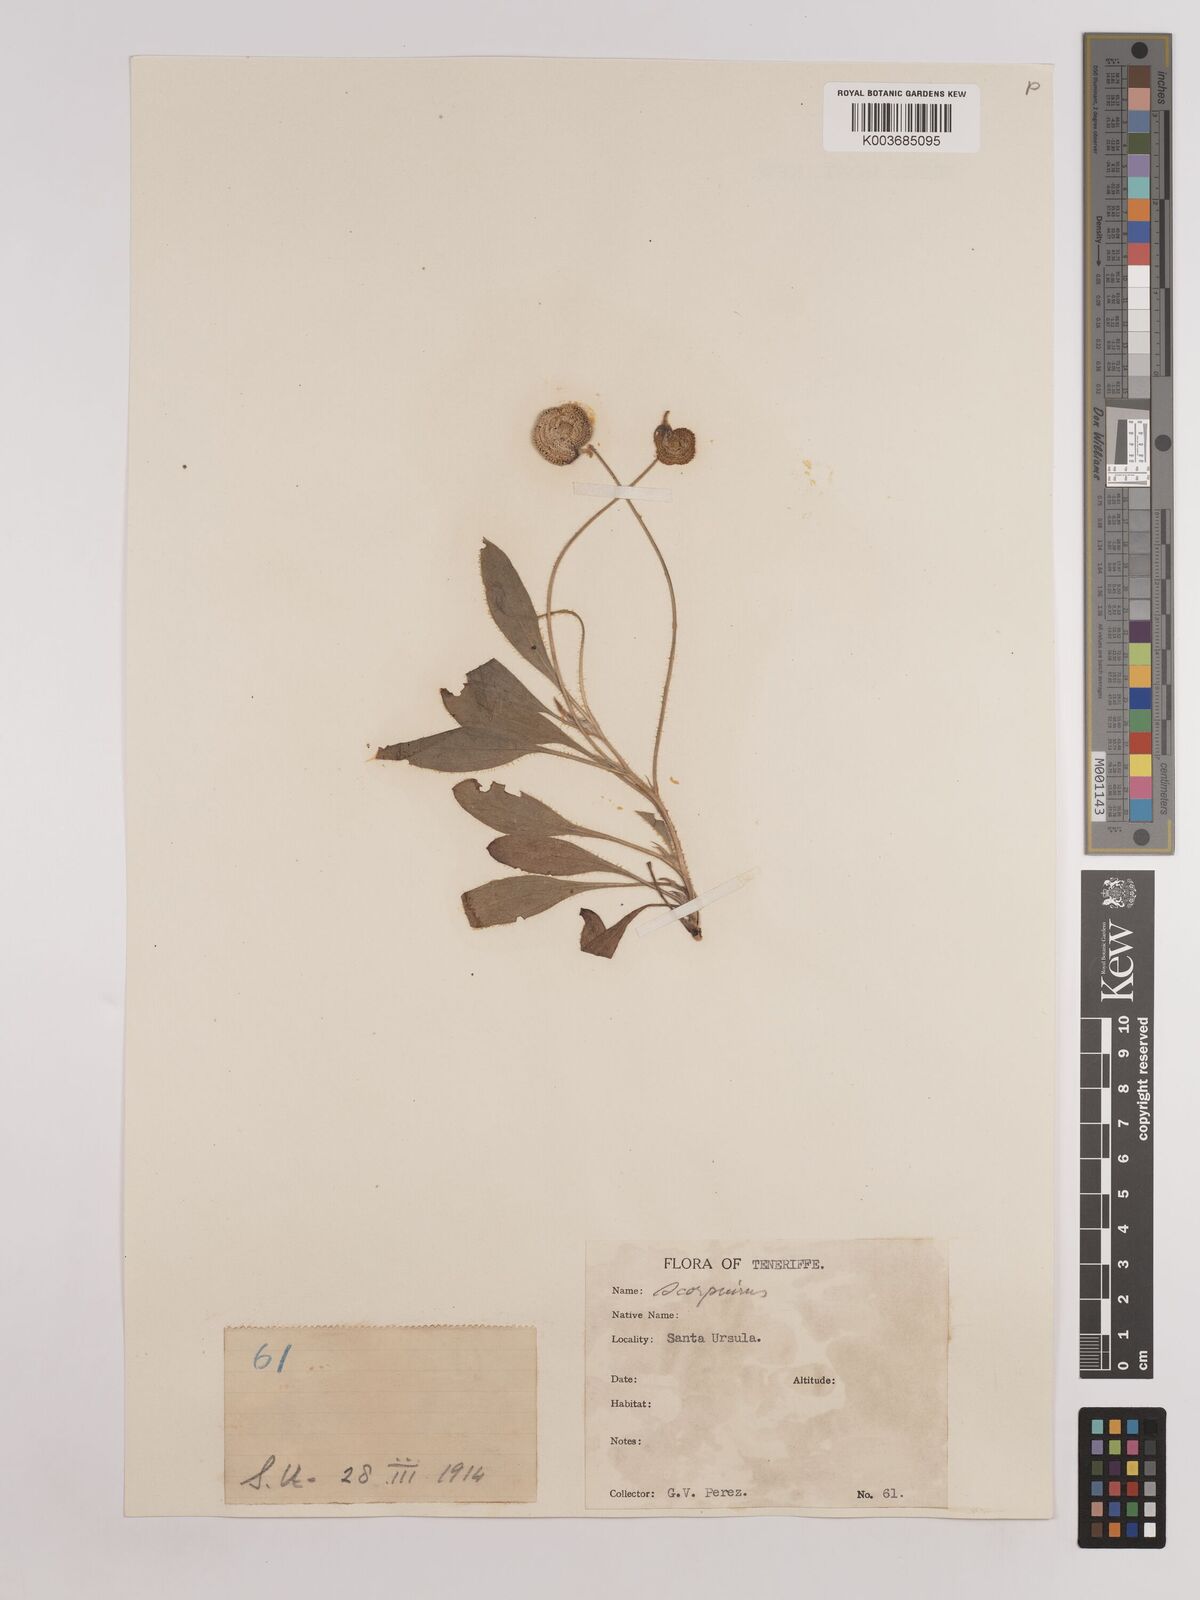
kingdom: Plantae
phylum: Tracheophyta
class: Magnoliopsida
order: Fabales
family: Fabaceae
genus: Scorpiurus
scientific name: Scorpiurus vermiculatus
